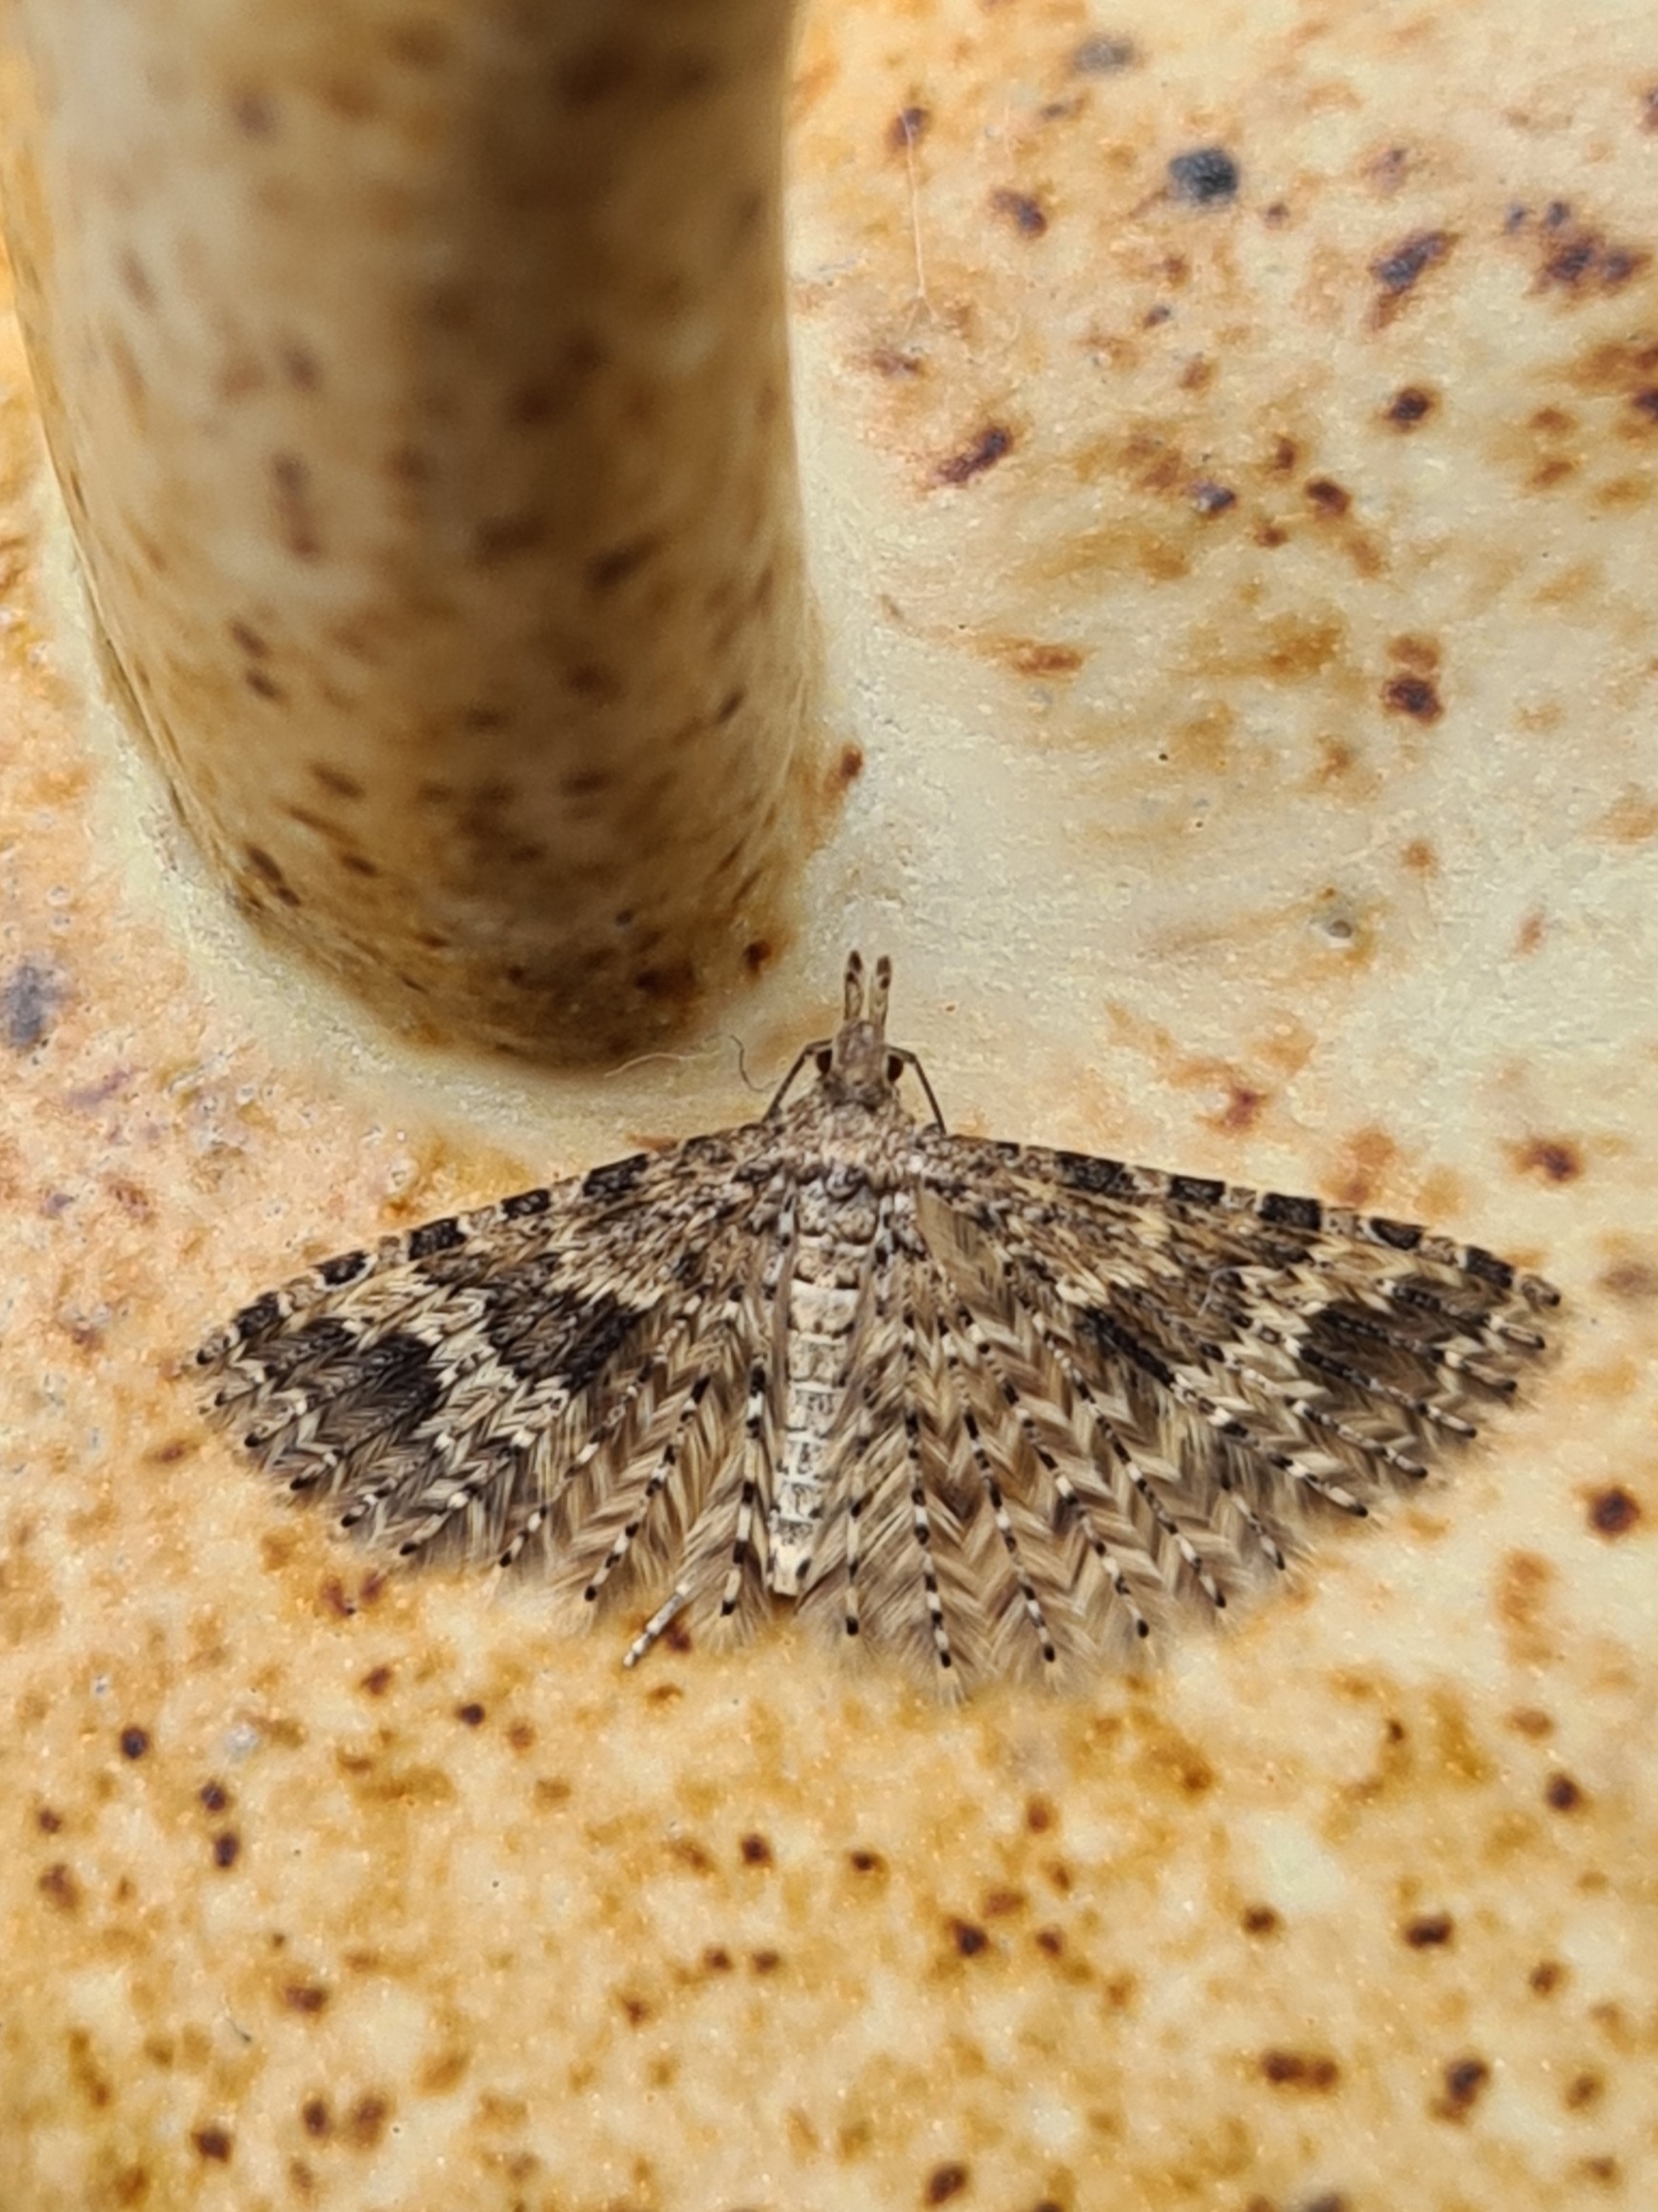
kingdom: Animalia
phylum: Arthropoda
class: Insecta
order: Lepidoptera
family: Alucitidae
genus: Alucita
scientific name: Alucita hexadactyla
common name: Kaprifoliefjermøl
